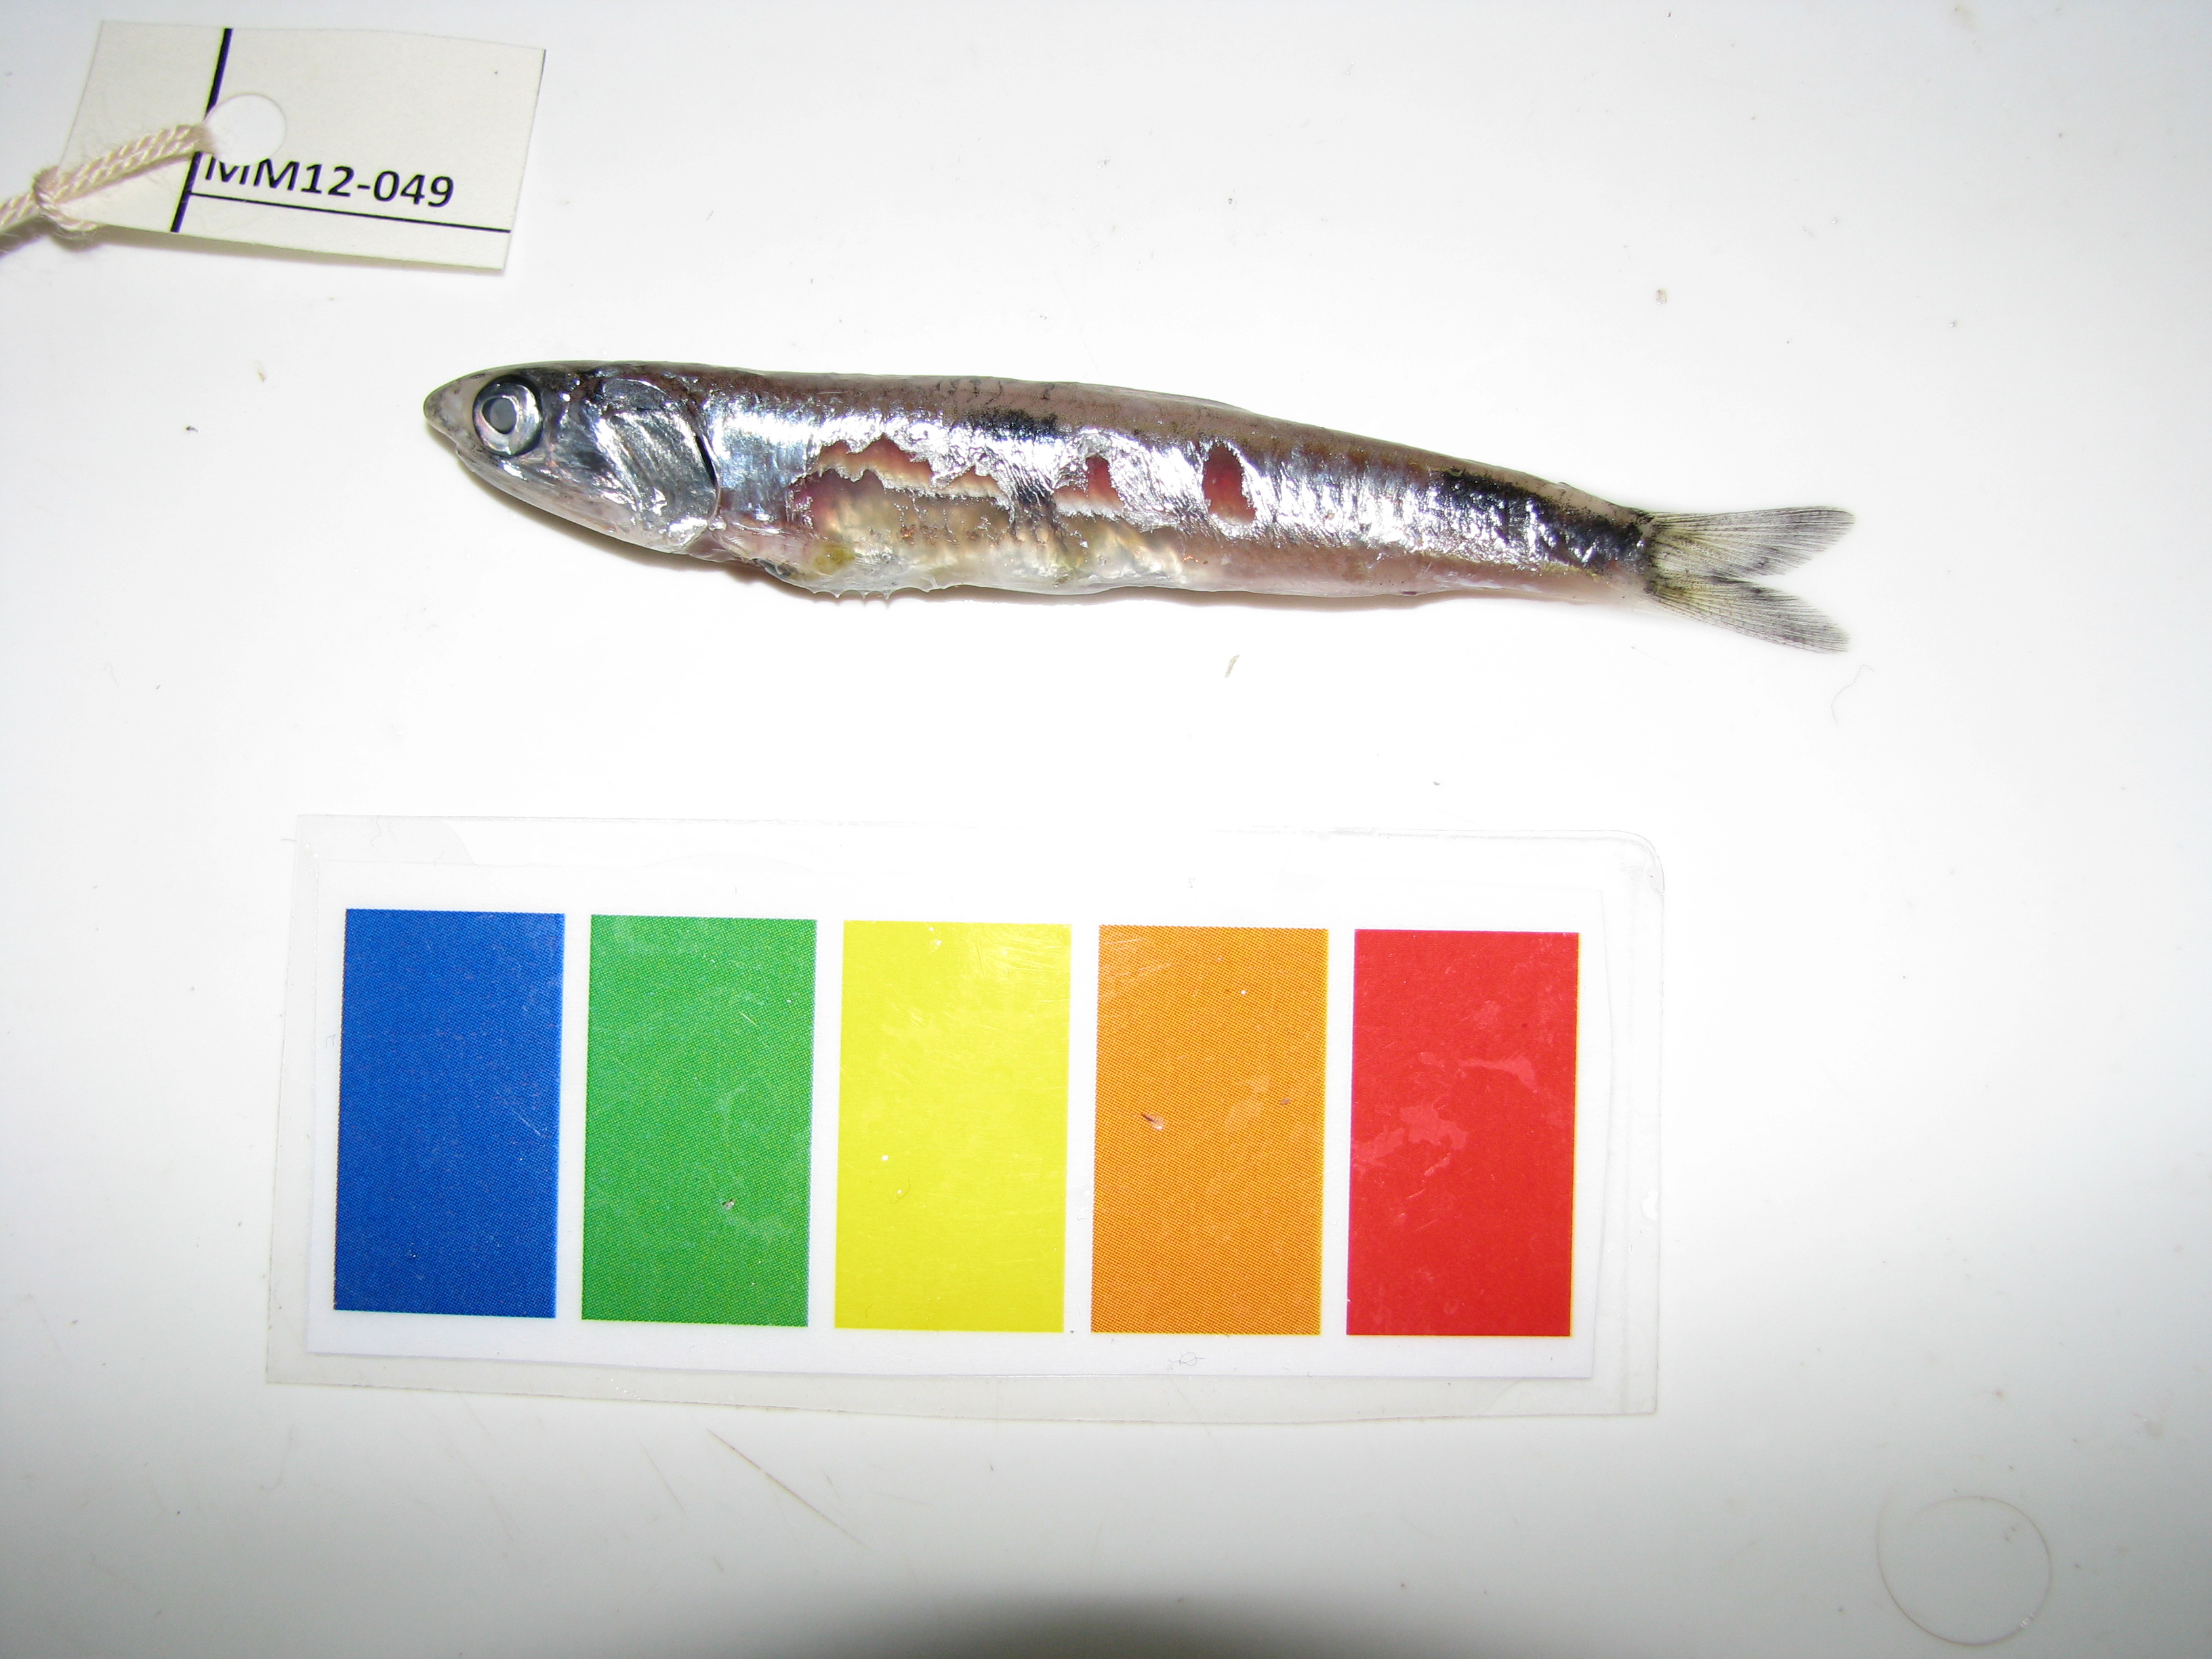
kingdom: Animalia
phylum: Chordata
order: Atheriniformes
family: Atherinidae
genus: Atherina
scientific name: Atherina breviceps
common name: Cape silverside
